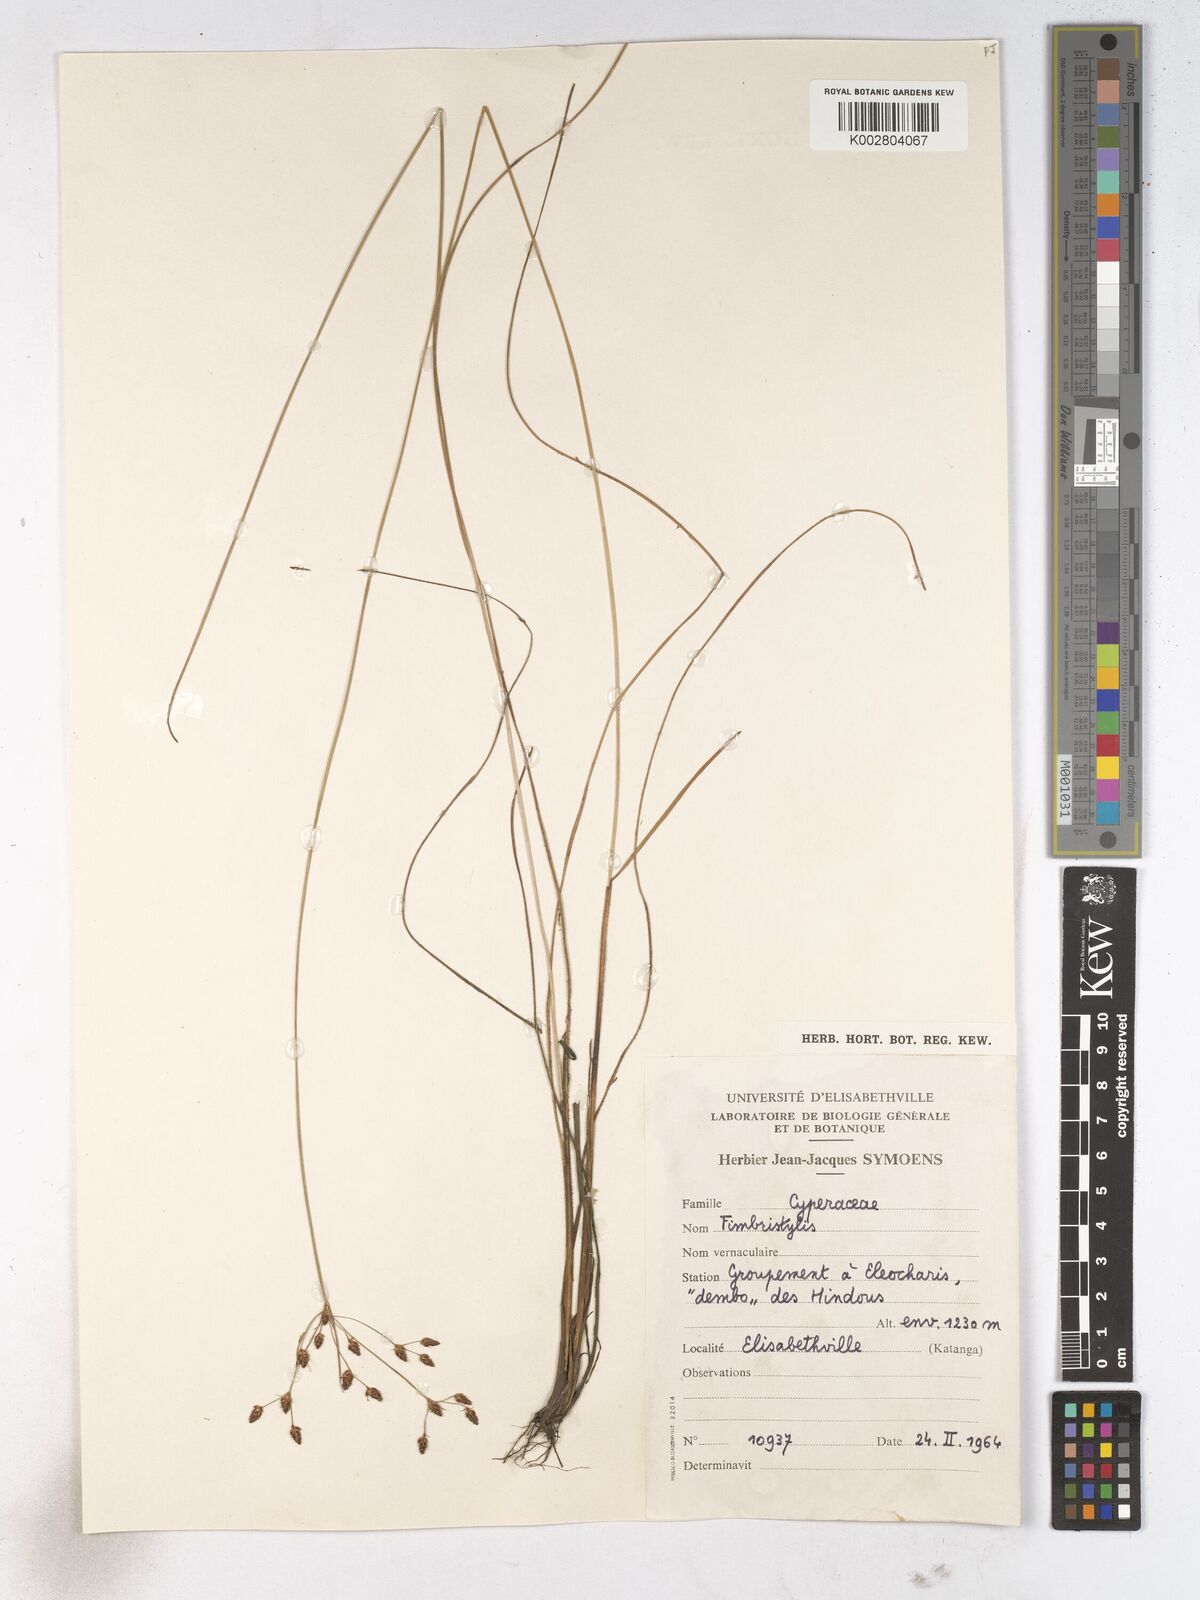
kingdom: Plantae
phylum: Tracheophyta
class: Liliopsida
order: Poales
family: Cyperaceae
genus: Fimbristylis
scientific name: Fimbristylis dichotoma
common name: Forked fimbry
